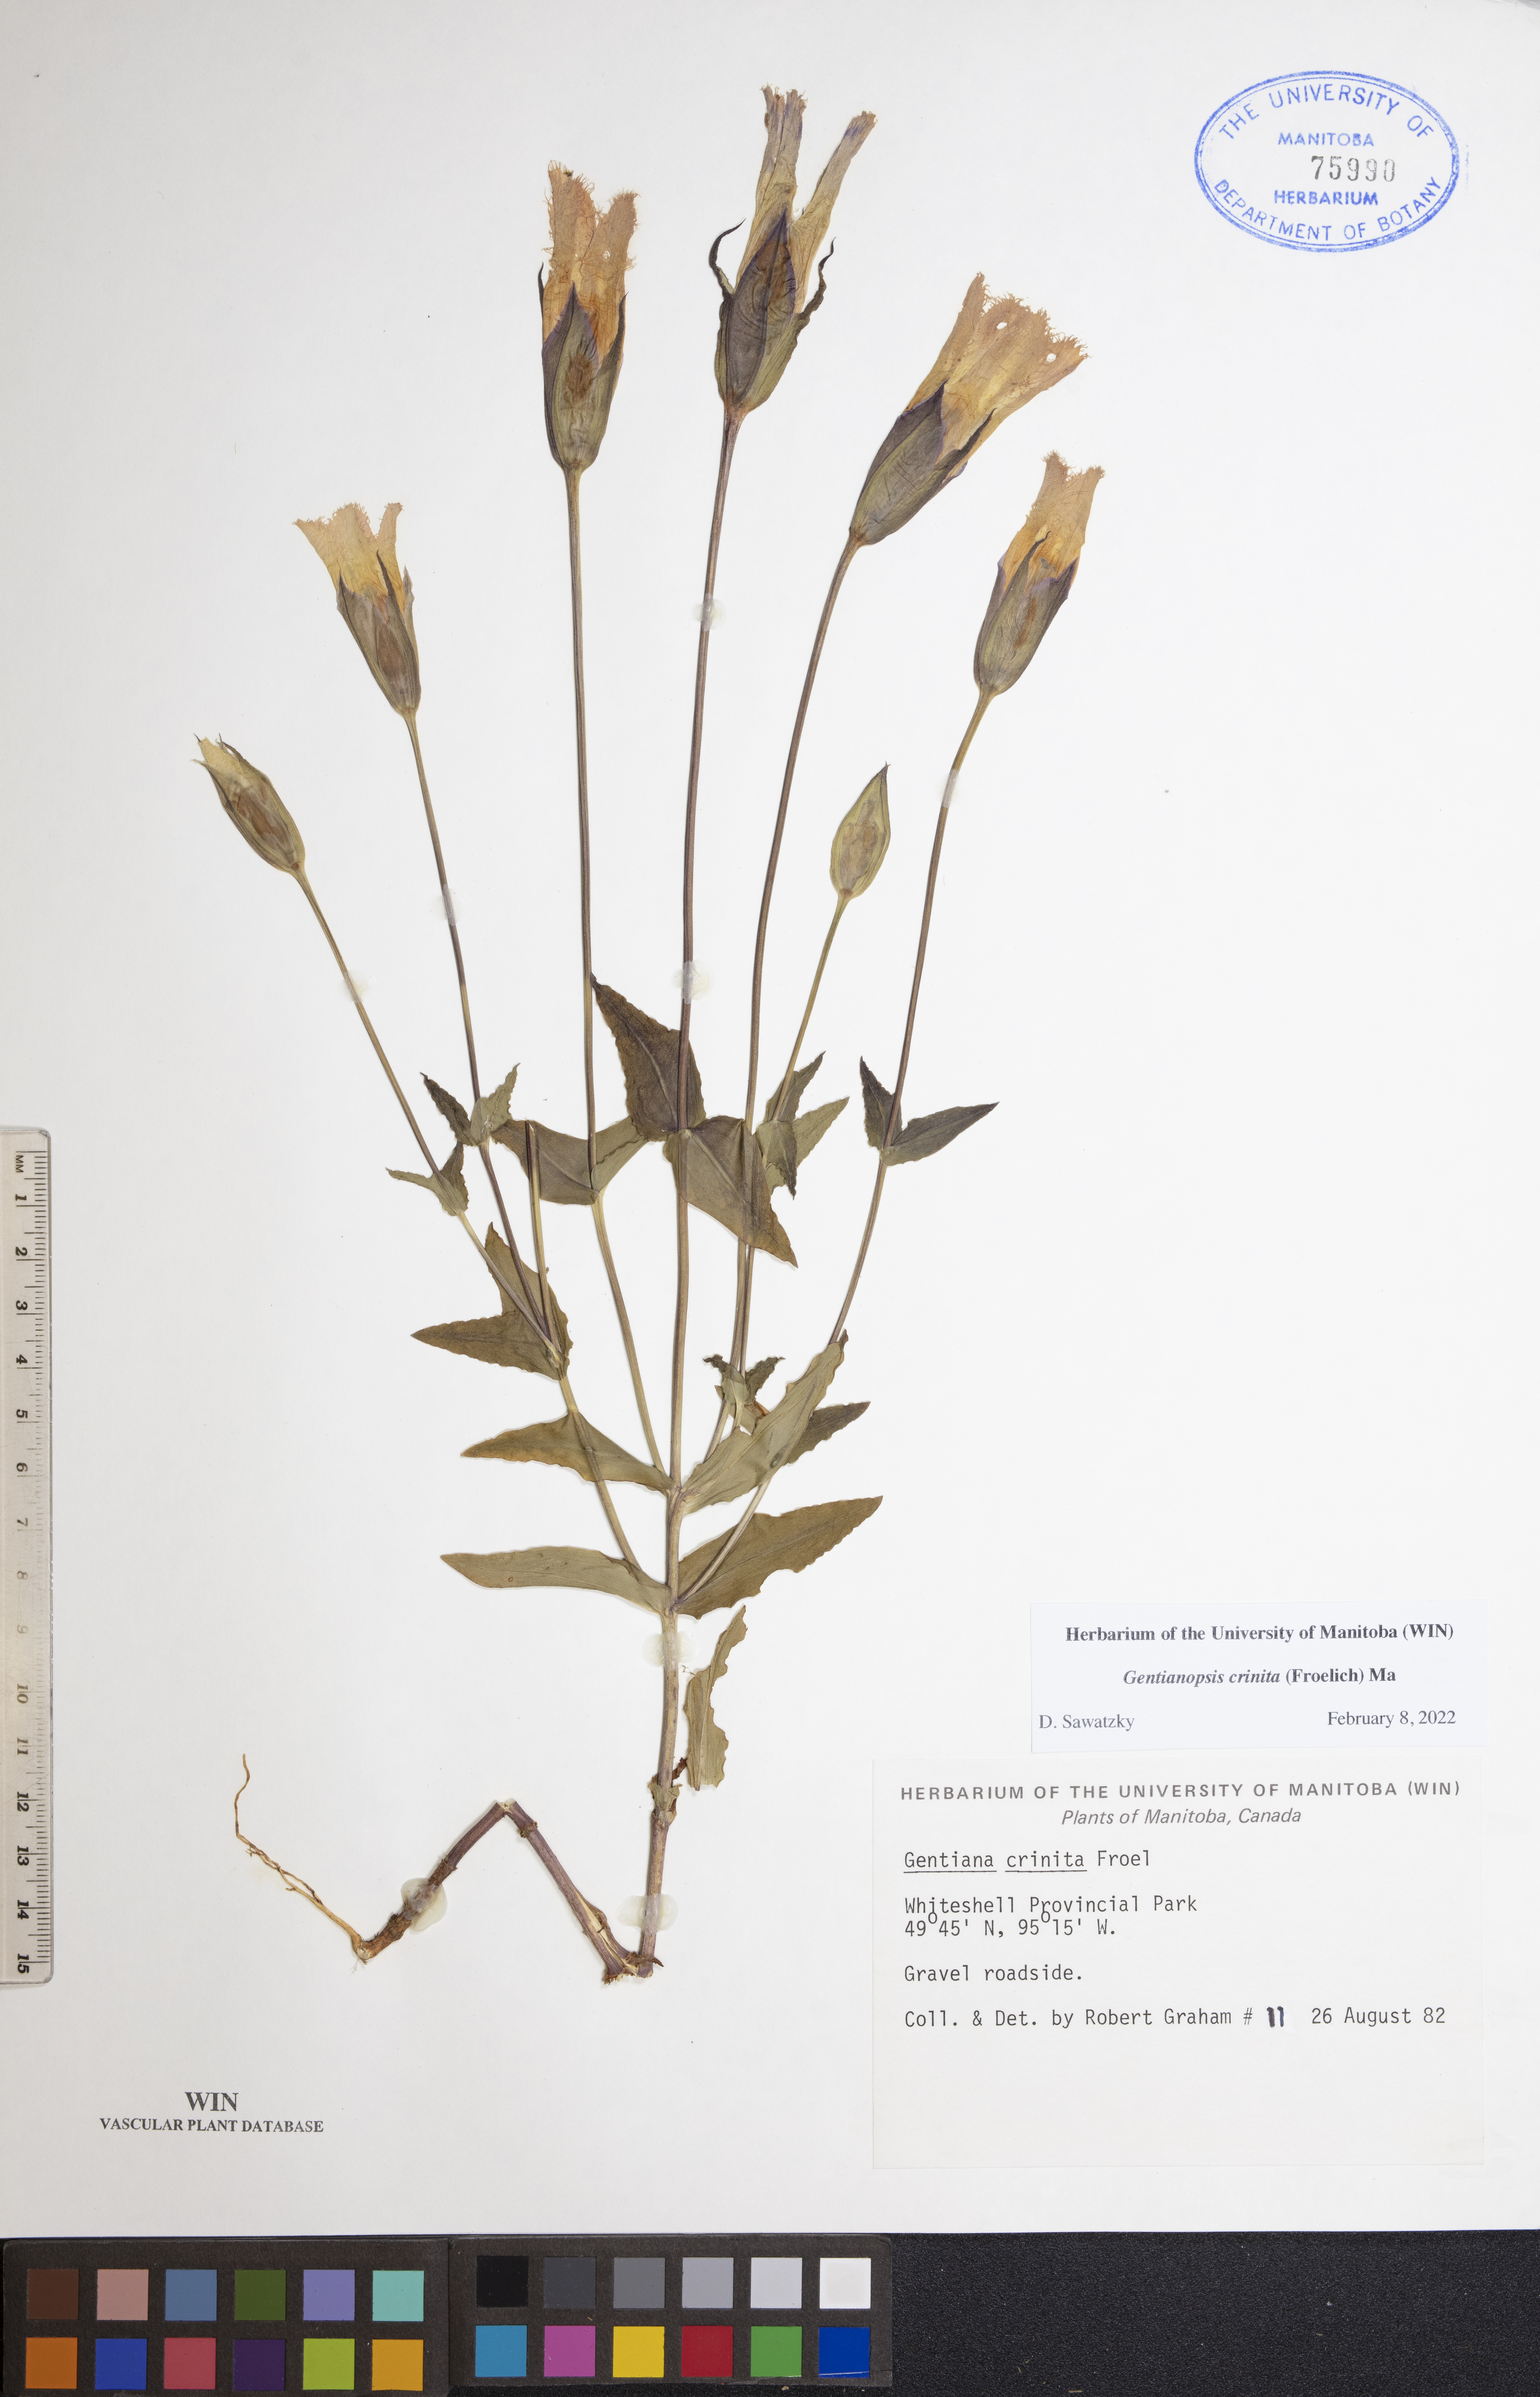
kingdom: Plantae
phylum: Tracheophyta
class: Magnoliopsida
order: Gentianales
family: Gentianaceae
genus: Gentianopsis
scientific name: Gentianopsis crinita
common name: Fringed-gentian
